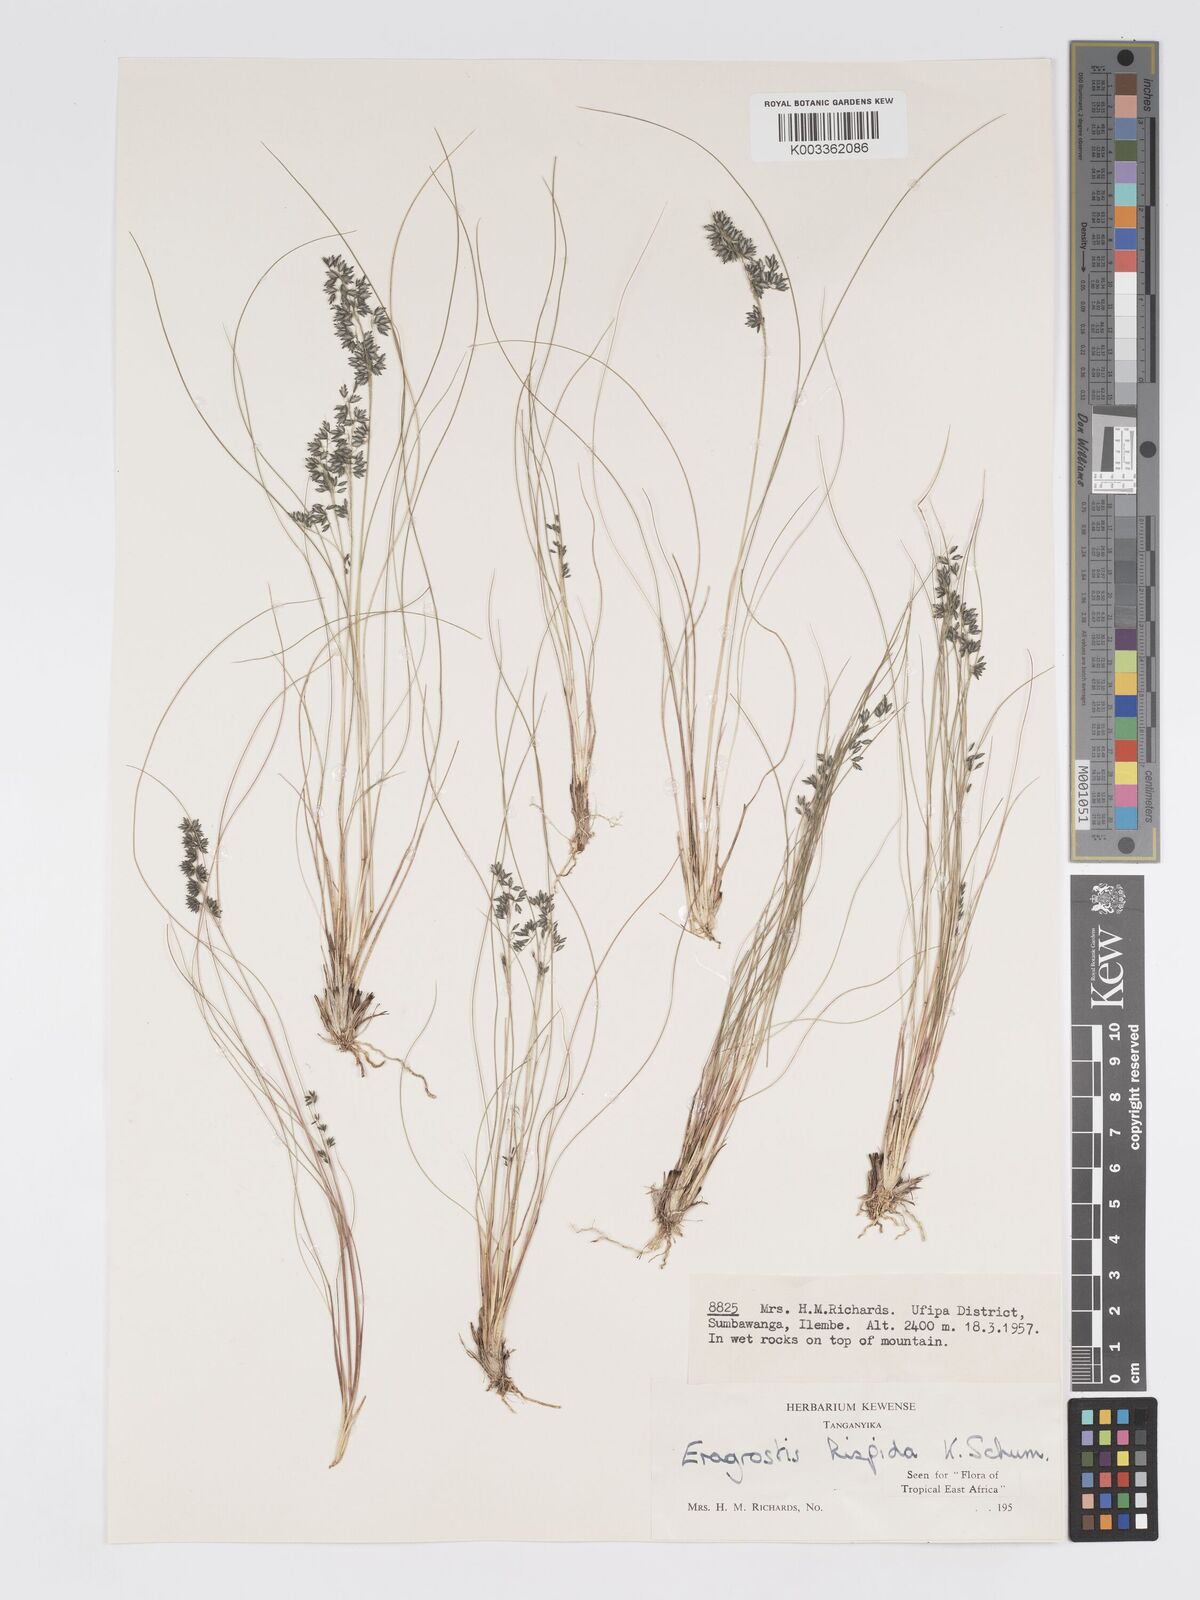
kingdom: Plantae
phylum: Tracheophyta
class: Liliopsida
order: Poales
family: Poaceae
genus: Eragrostis
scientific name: Eragrostis hispida
